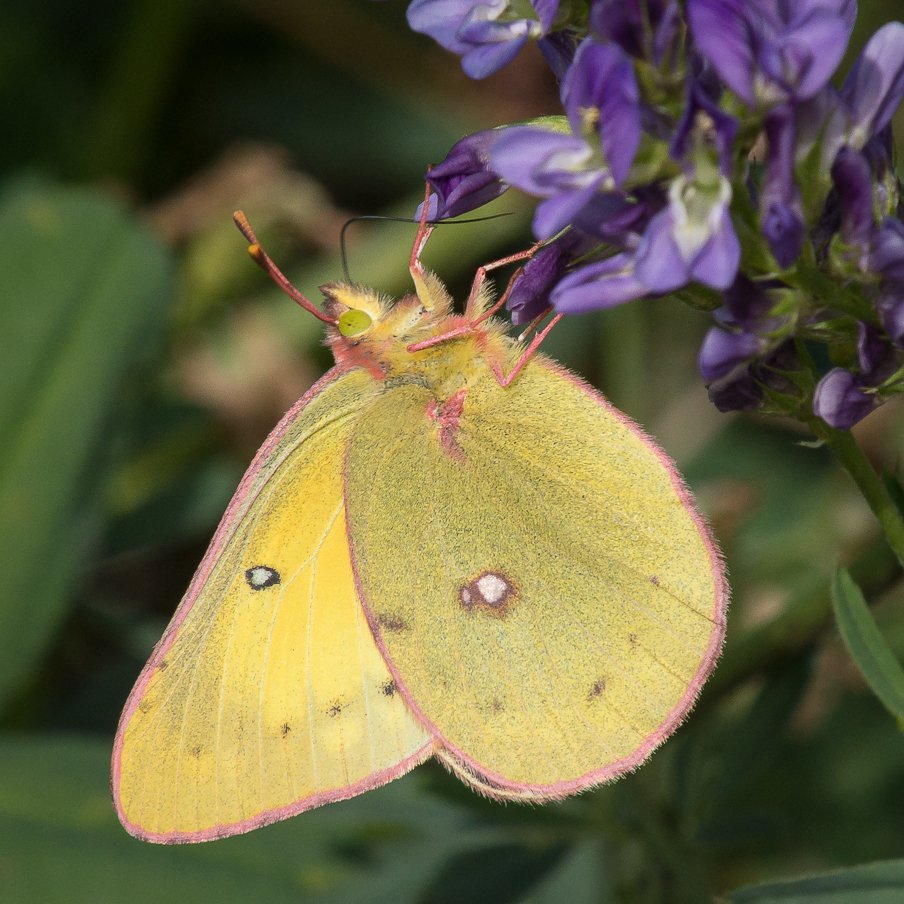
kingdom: Animalia
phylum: Arthropoda
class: Insecta
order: Lepidoptera
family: Pieridae
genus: Colias
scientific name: Colias philodice
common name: Clouded Sulphur
